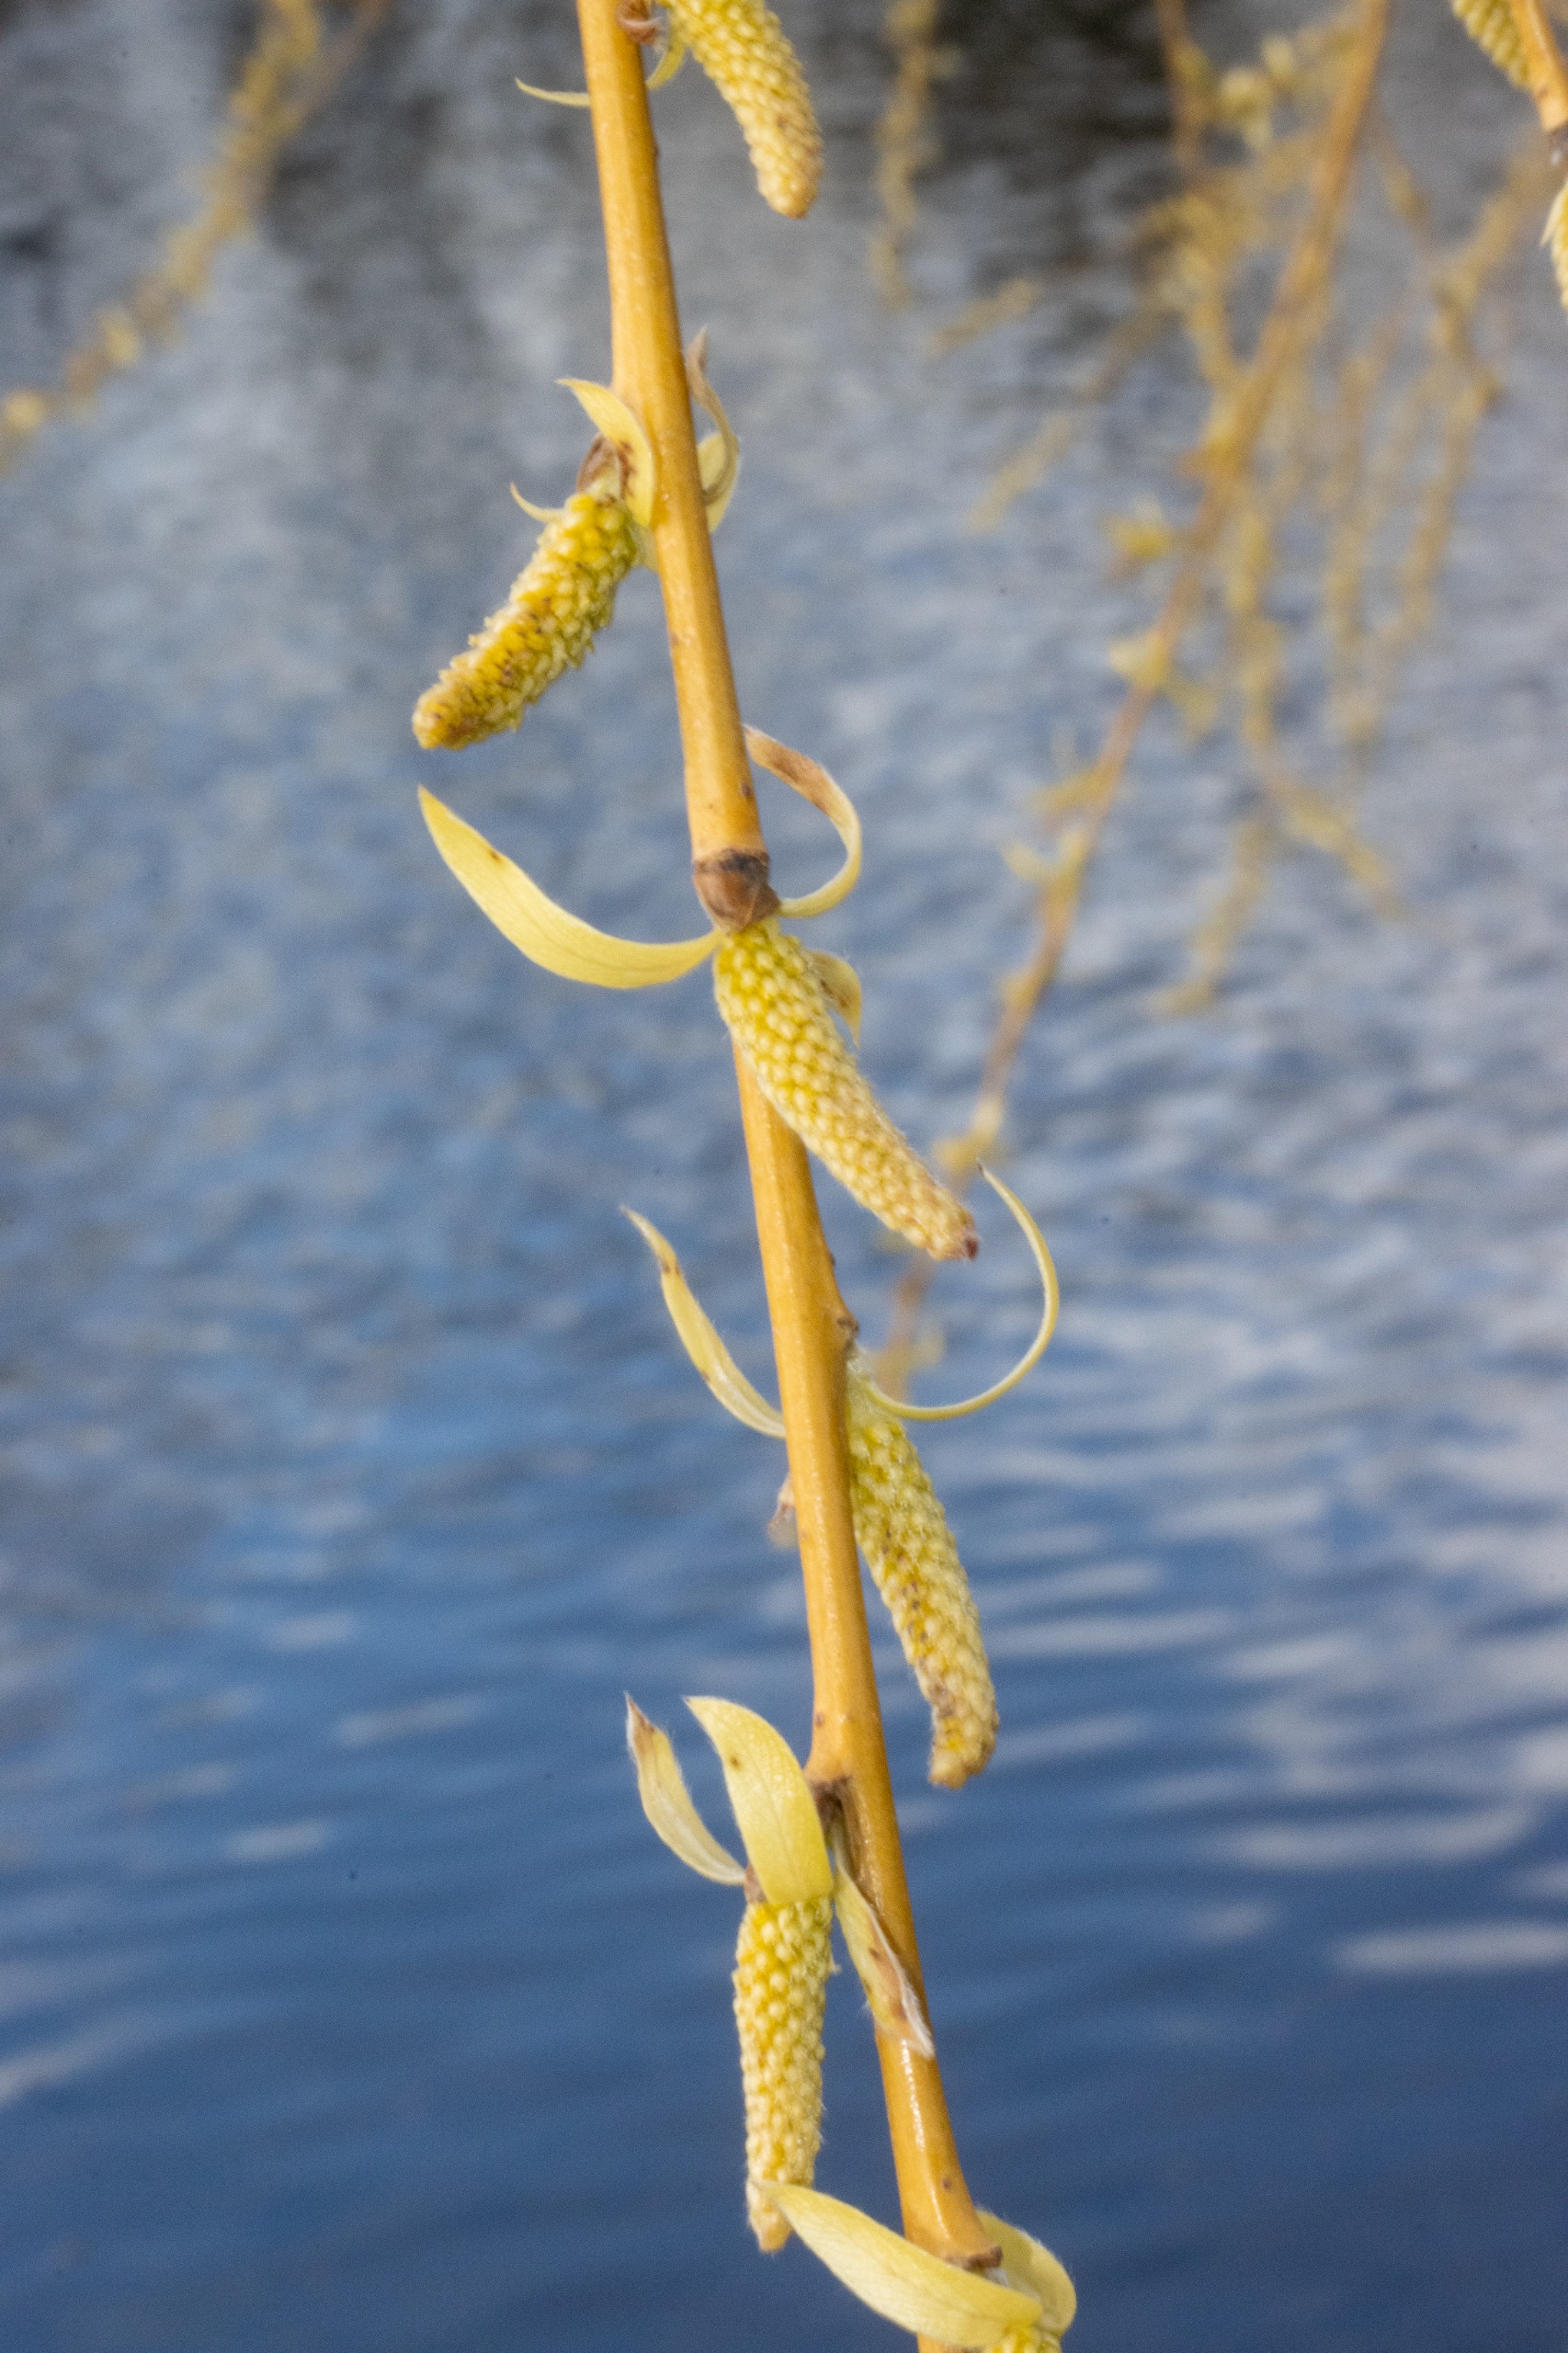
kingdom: Plantae
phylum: Tracheophyta
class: Magnoliopsida
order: Malpighiales
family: Salicaceae
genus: Salix
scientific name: Salix sepulcralis
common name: Hænge-pil
